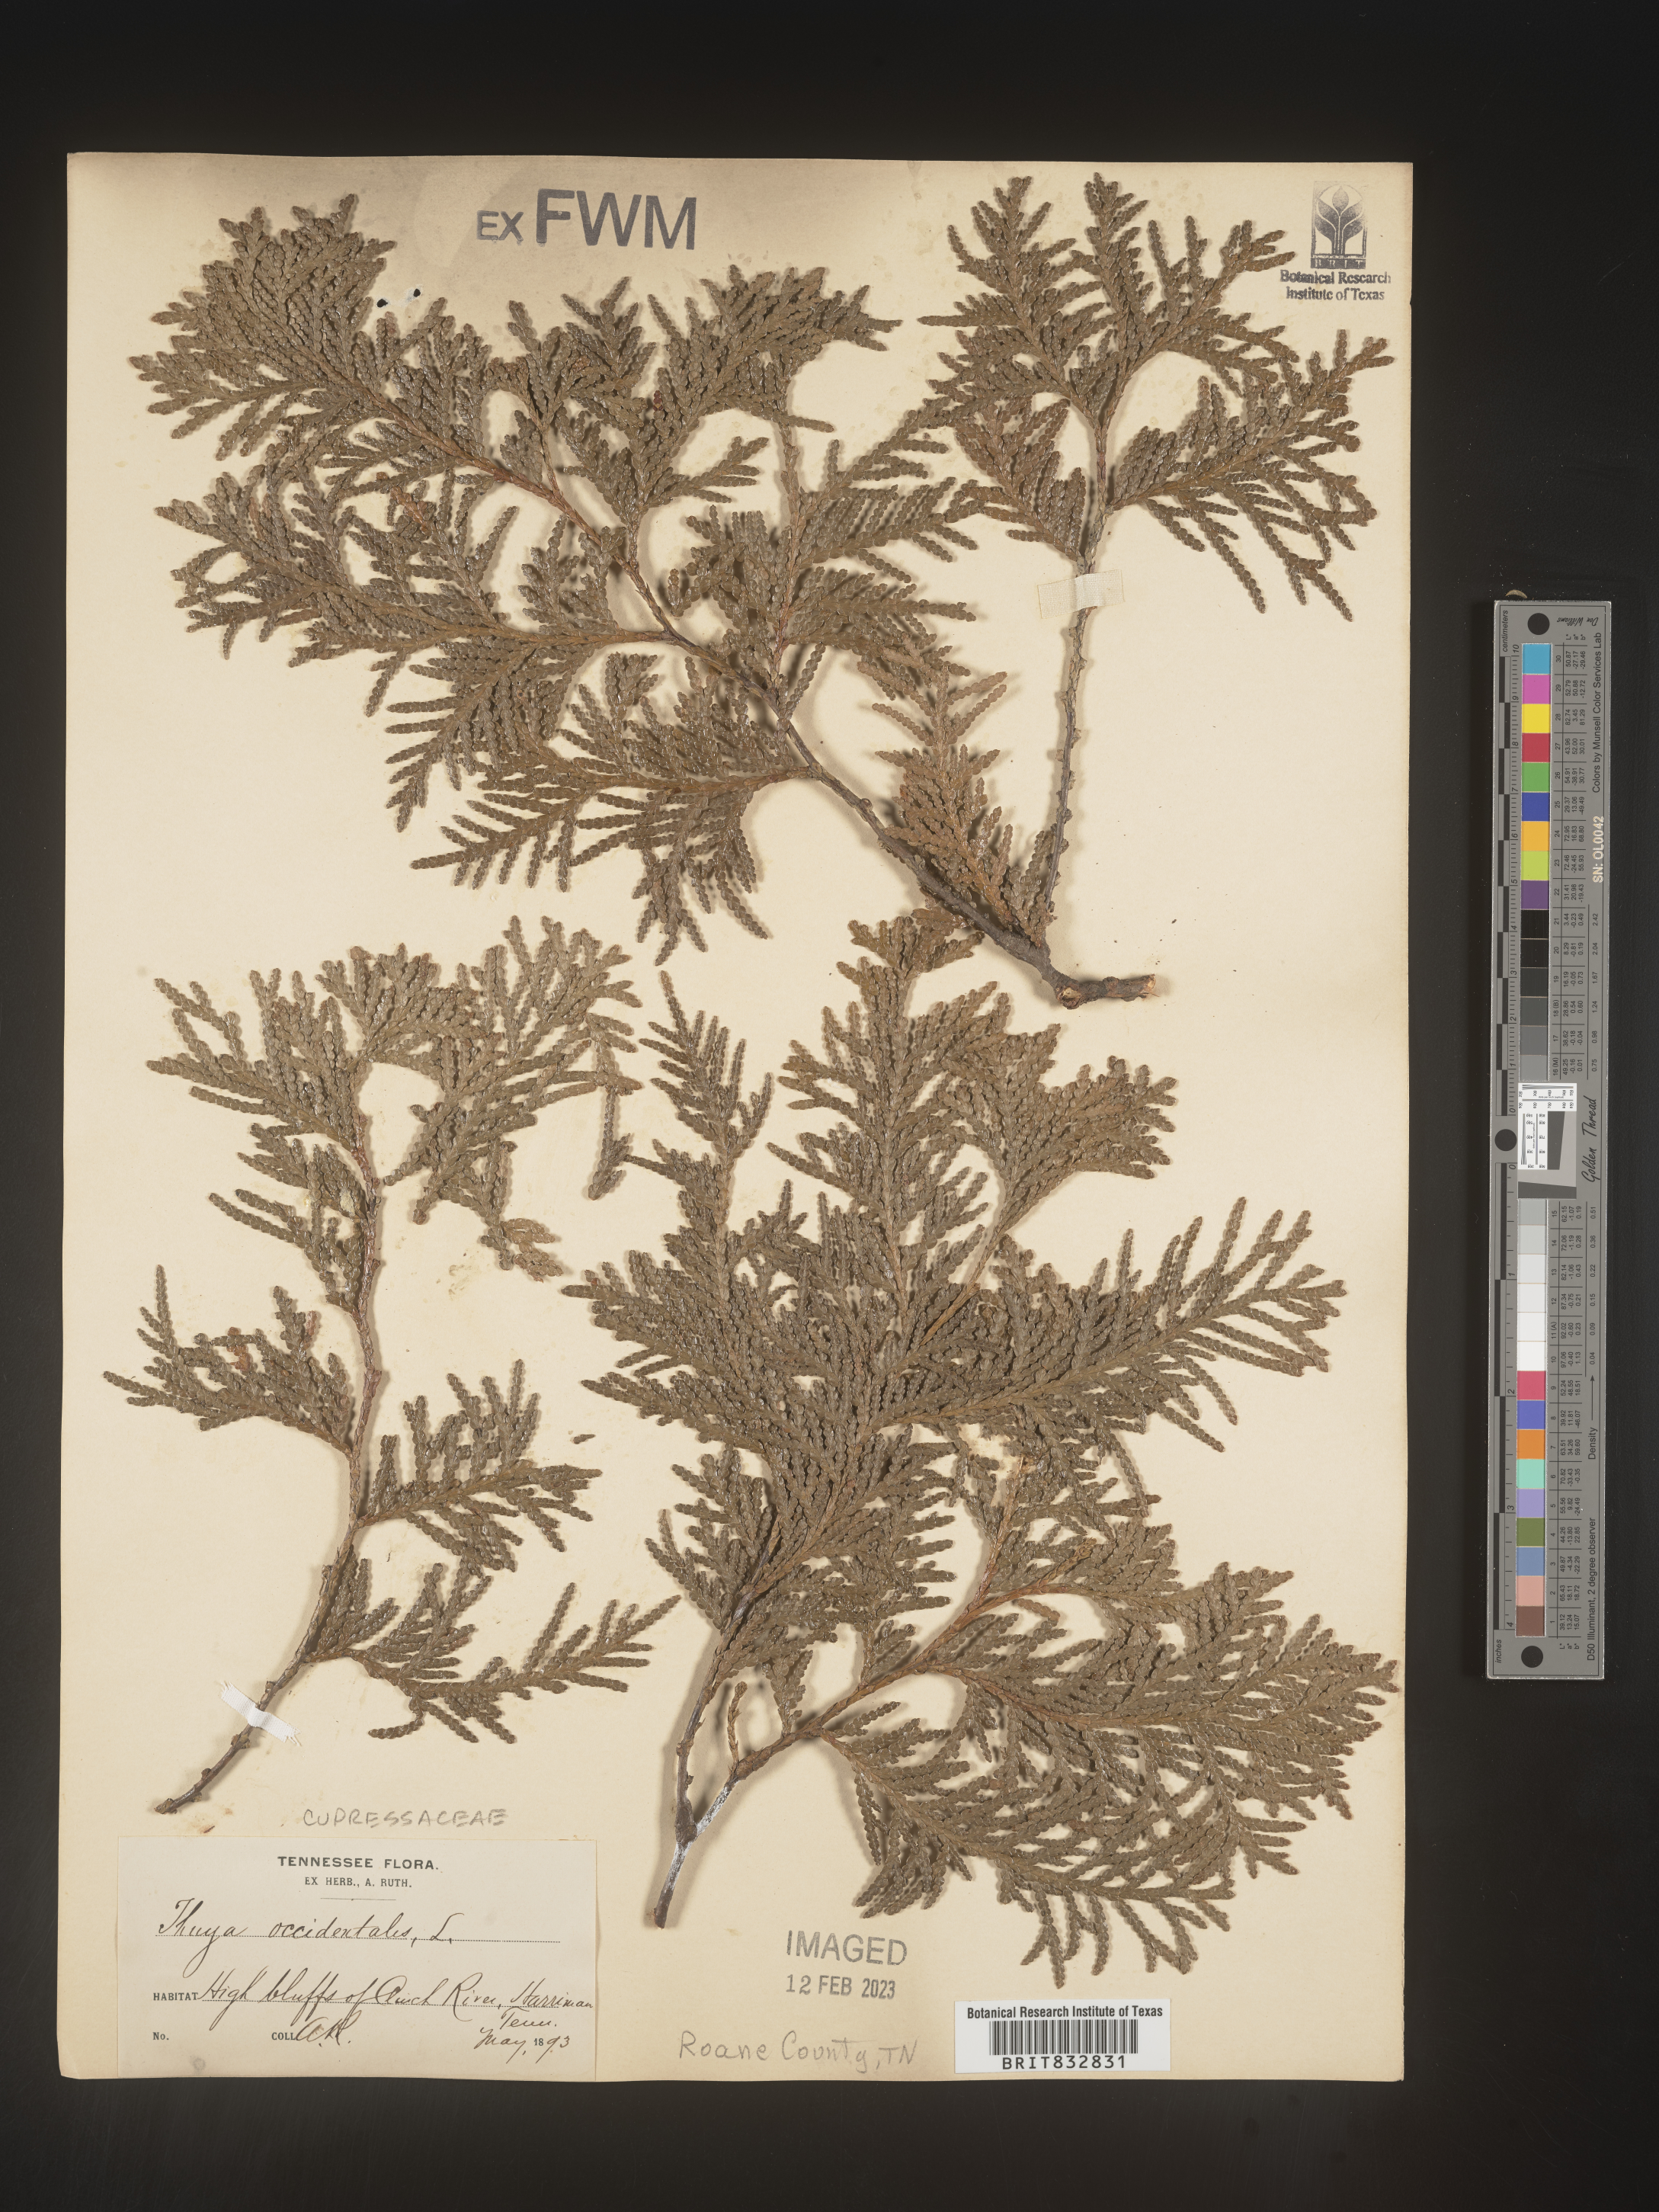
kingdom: Plantae
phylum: Tracheophyta
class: Pinopsida
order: Pinales
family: Cupressaceae
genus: Thuja
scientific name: Thuja occidentalis
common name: Northern white-cedar
